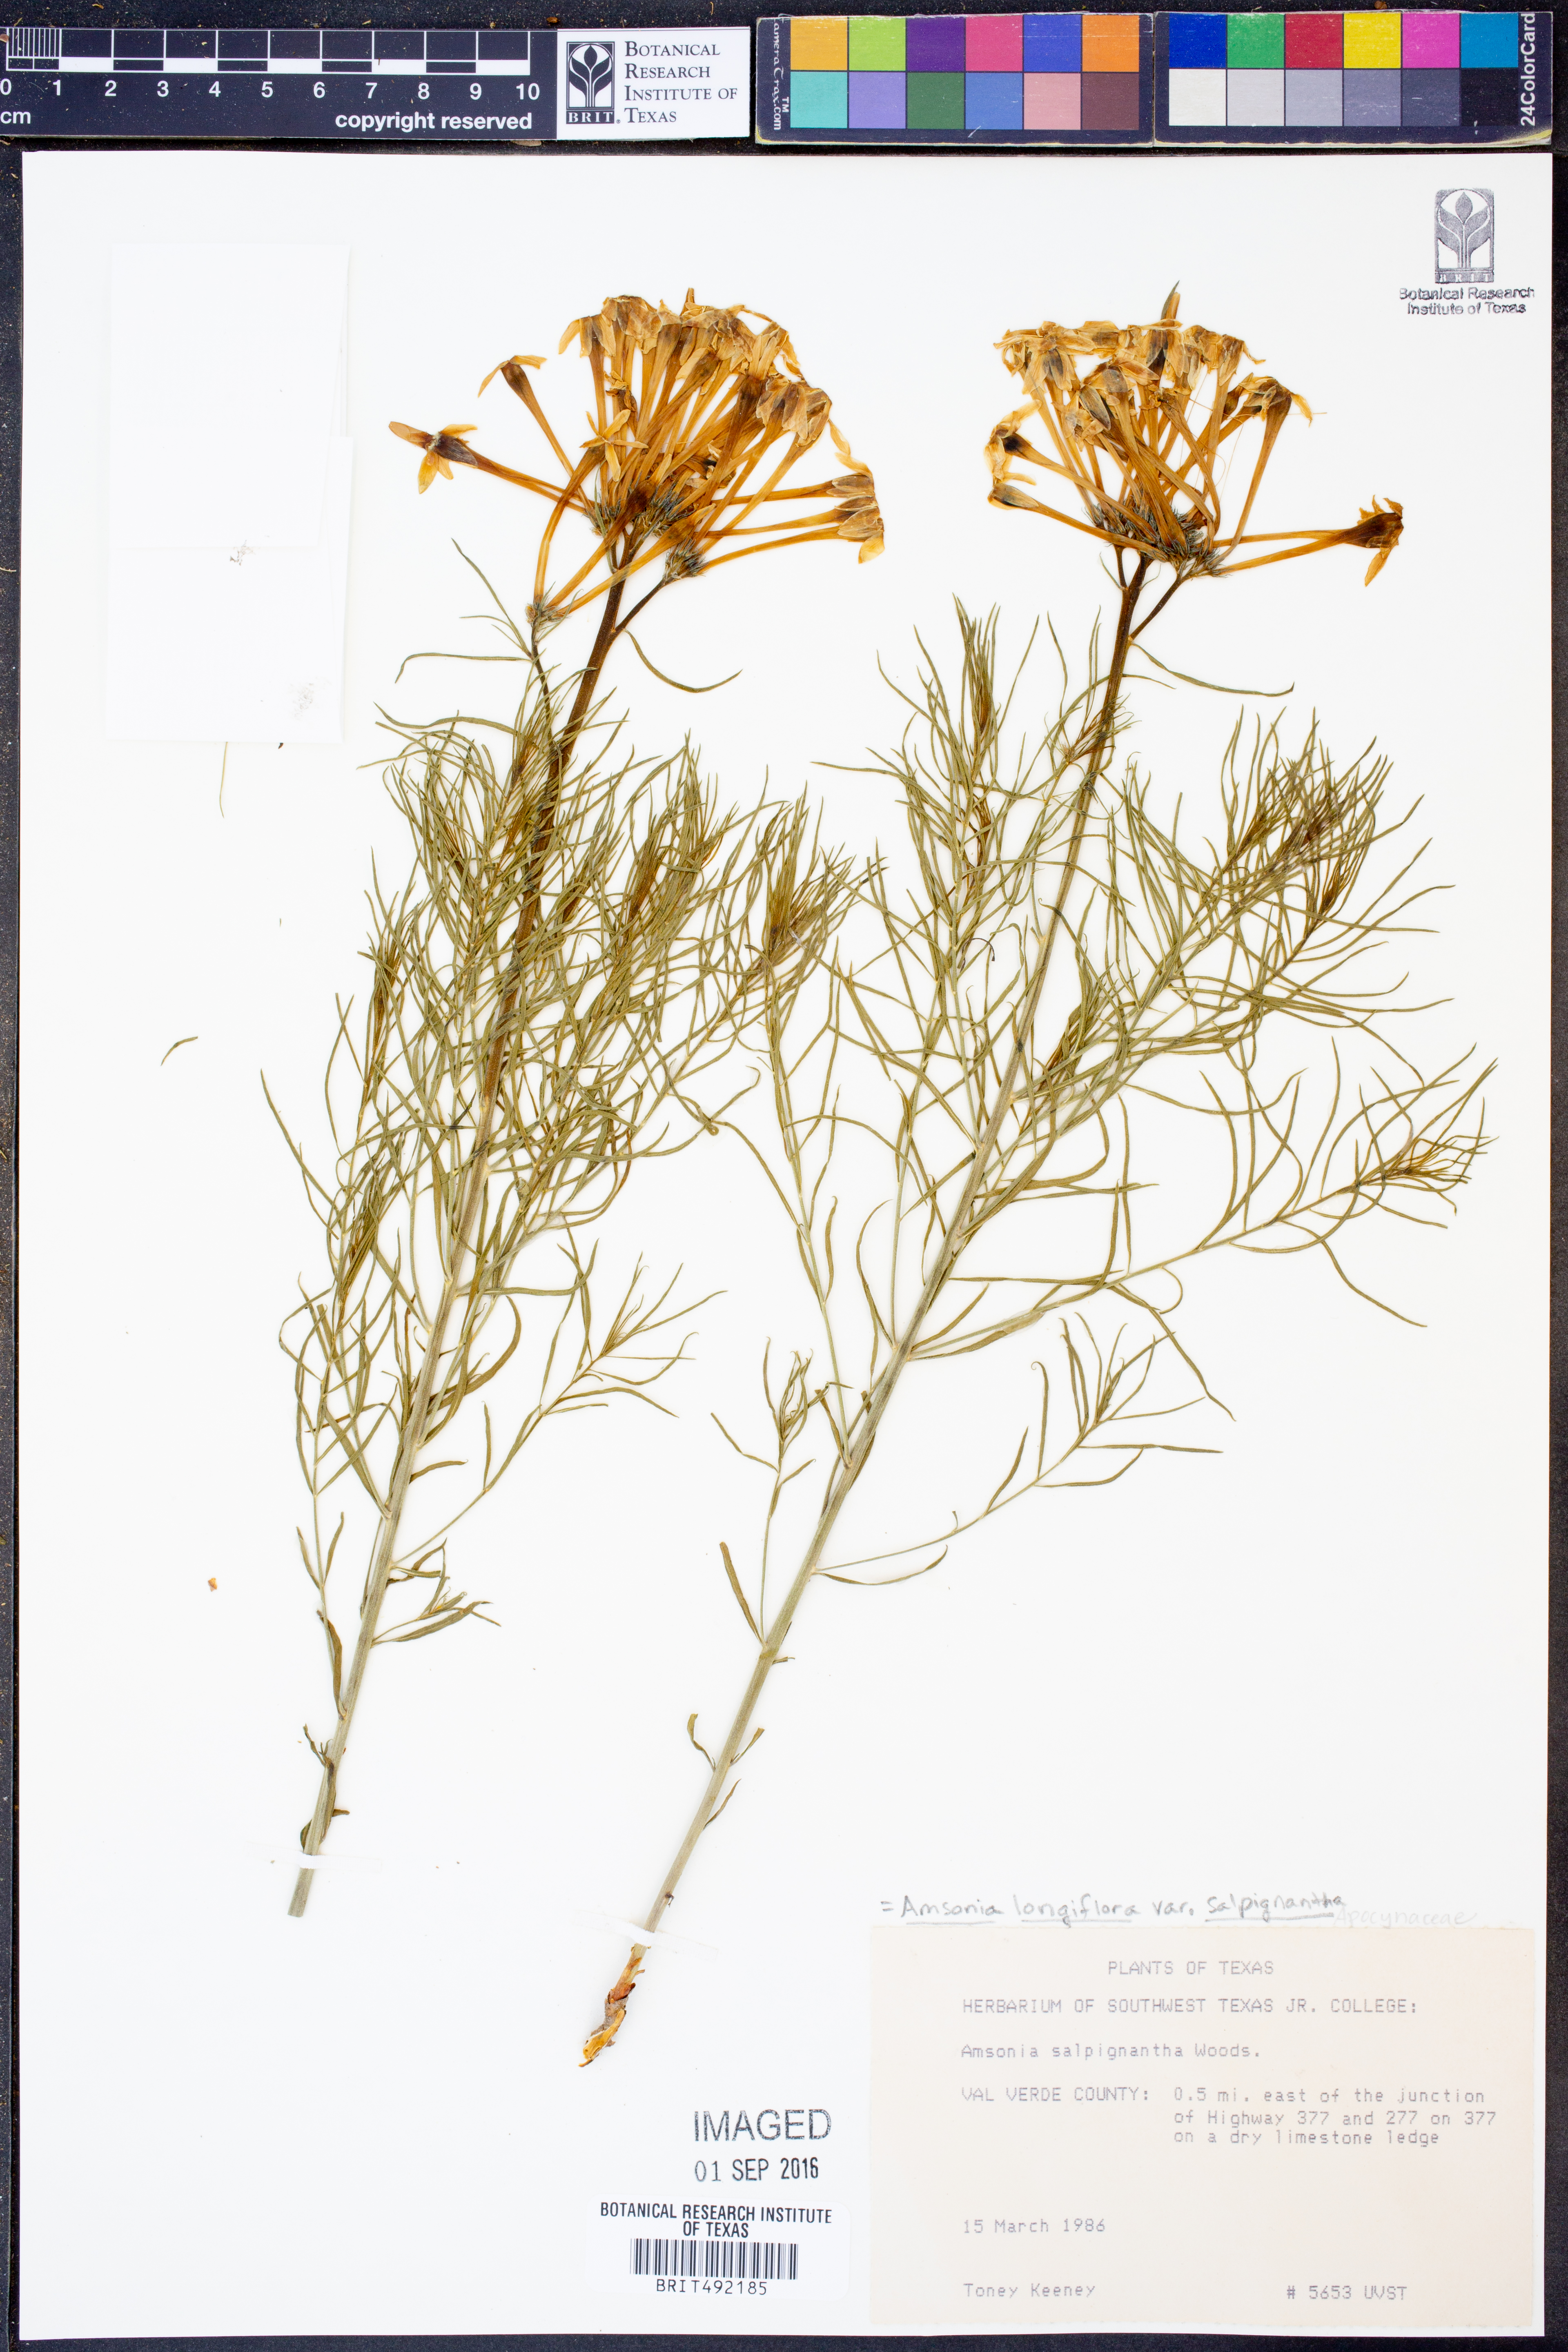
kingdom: Plantae
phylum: Tracheophyta
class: Magnoliopsida
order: Gentianales
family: Apocynaceae
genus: Amsonia
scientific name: Amsonia longiflora
